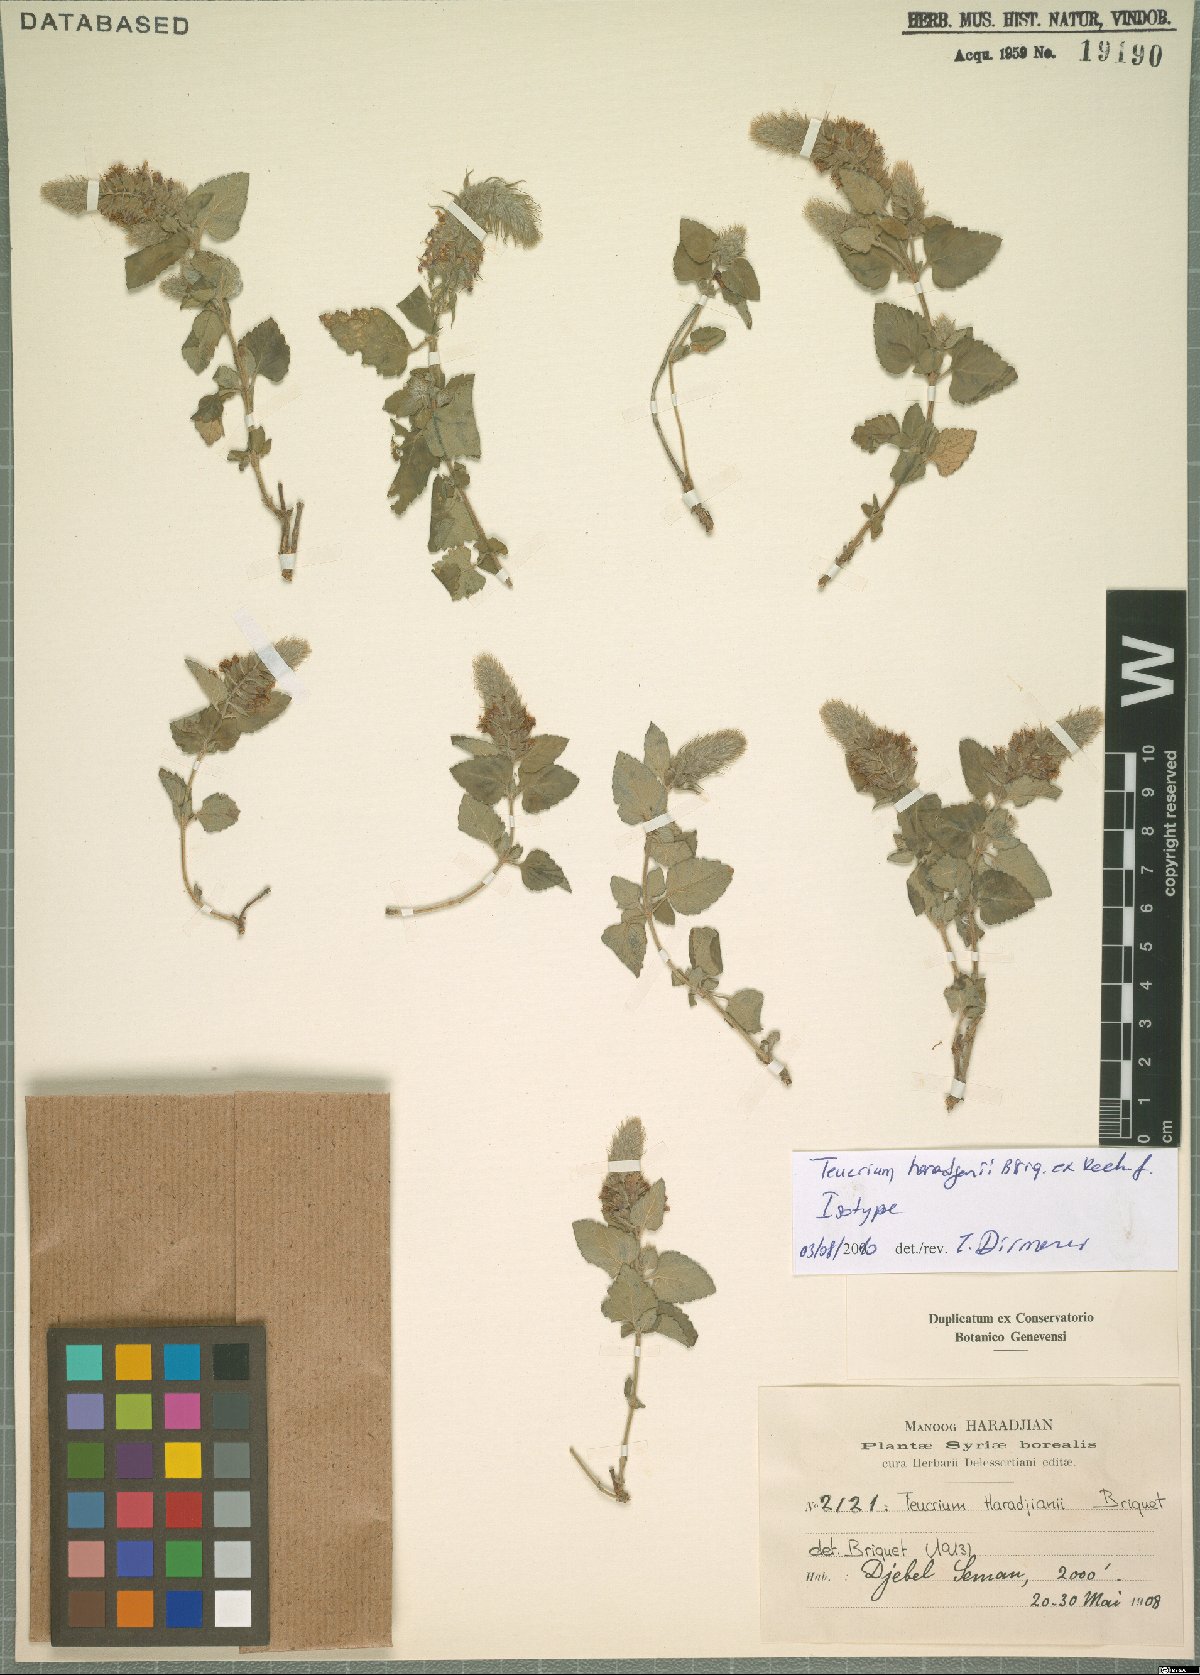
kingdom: Plantae
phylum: Tracheophyta
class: Magnoliopsida
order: Lamiales
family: Lamiaceae
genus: Teucrium
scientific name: Teucrium haradjanii
